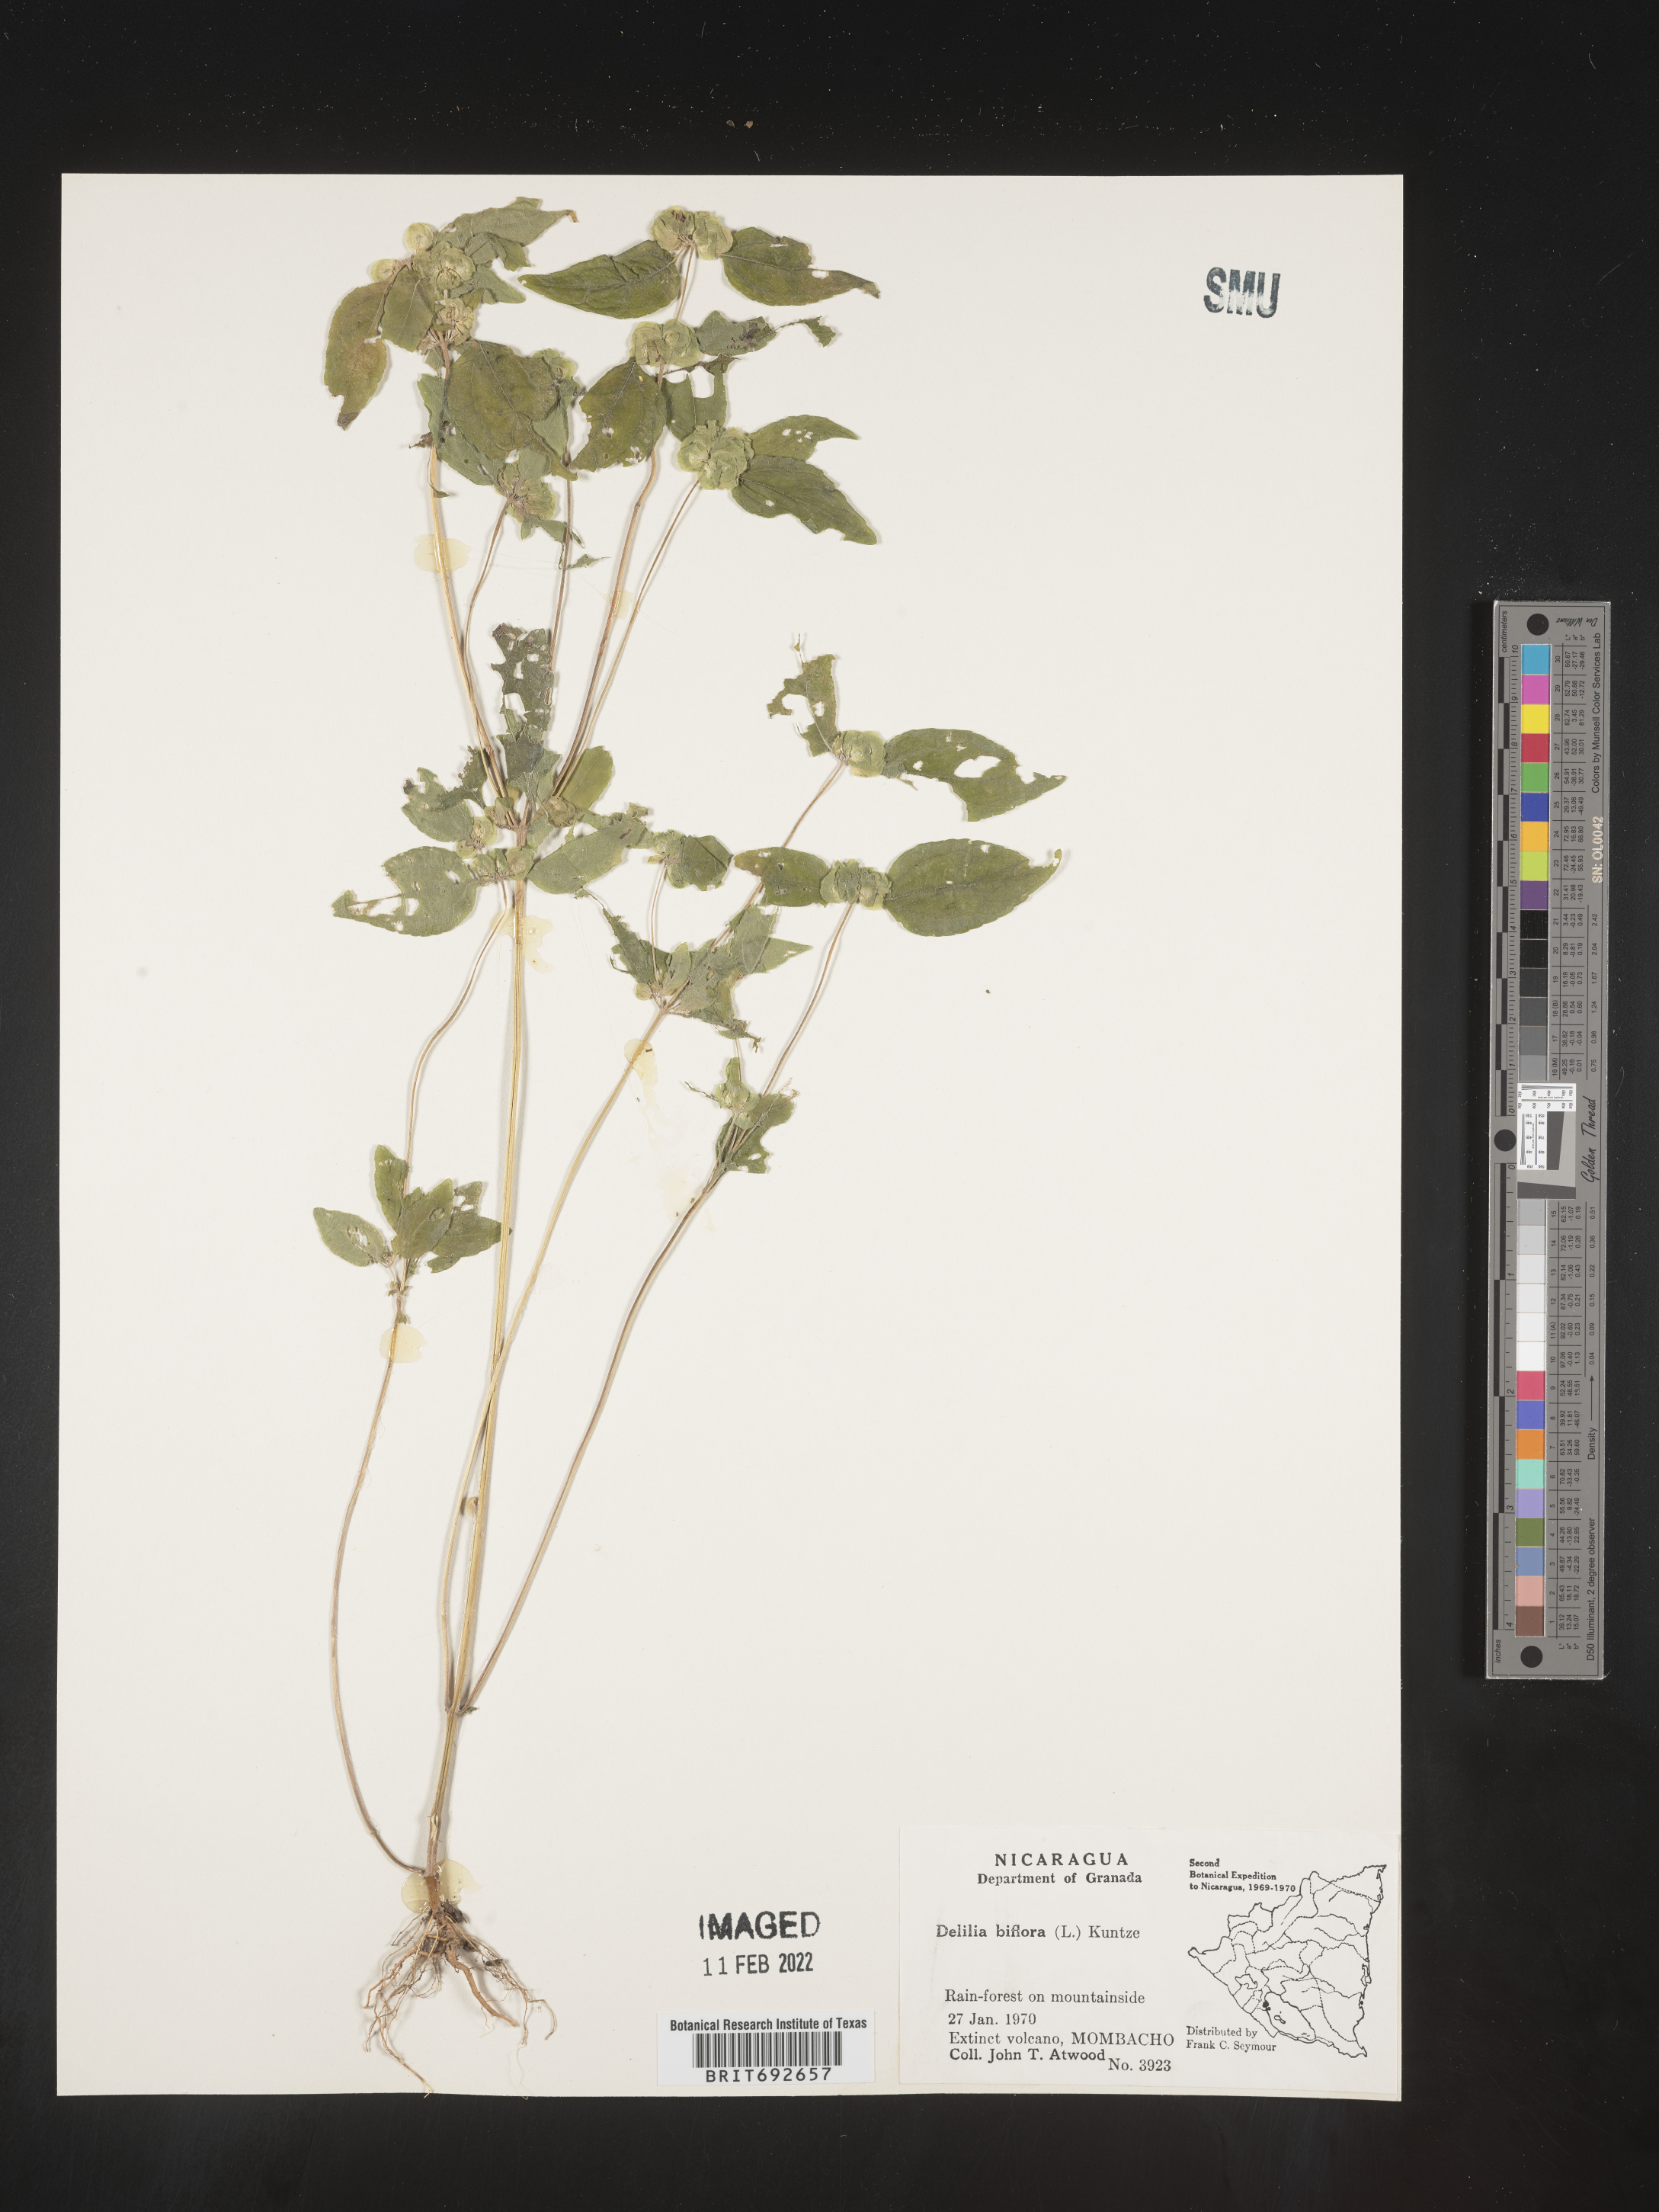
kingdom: Plantae
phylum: Tracheophyta
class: Magnoliopsida
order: Asterales
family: Asteraceae
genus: Delilia
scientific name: Delilia
